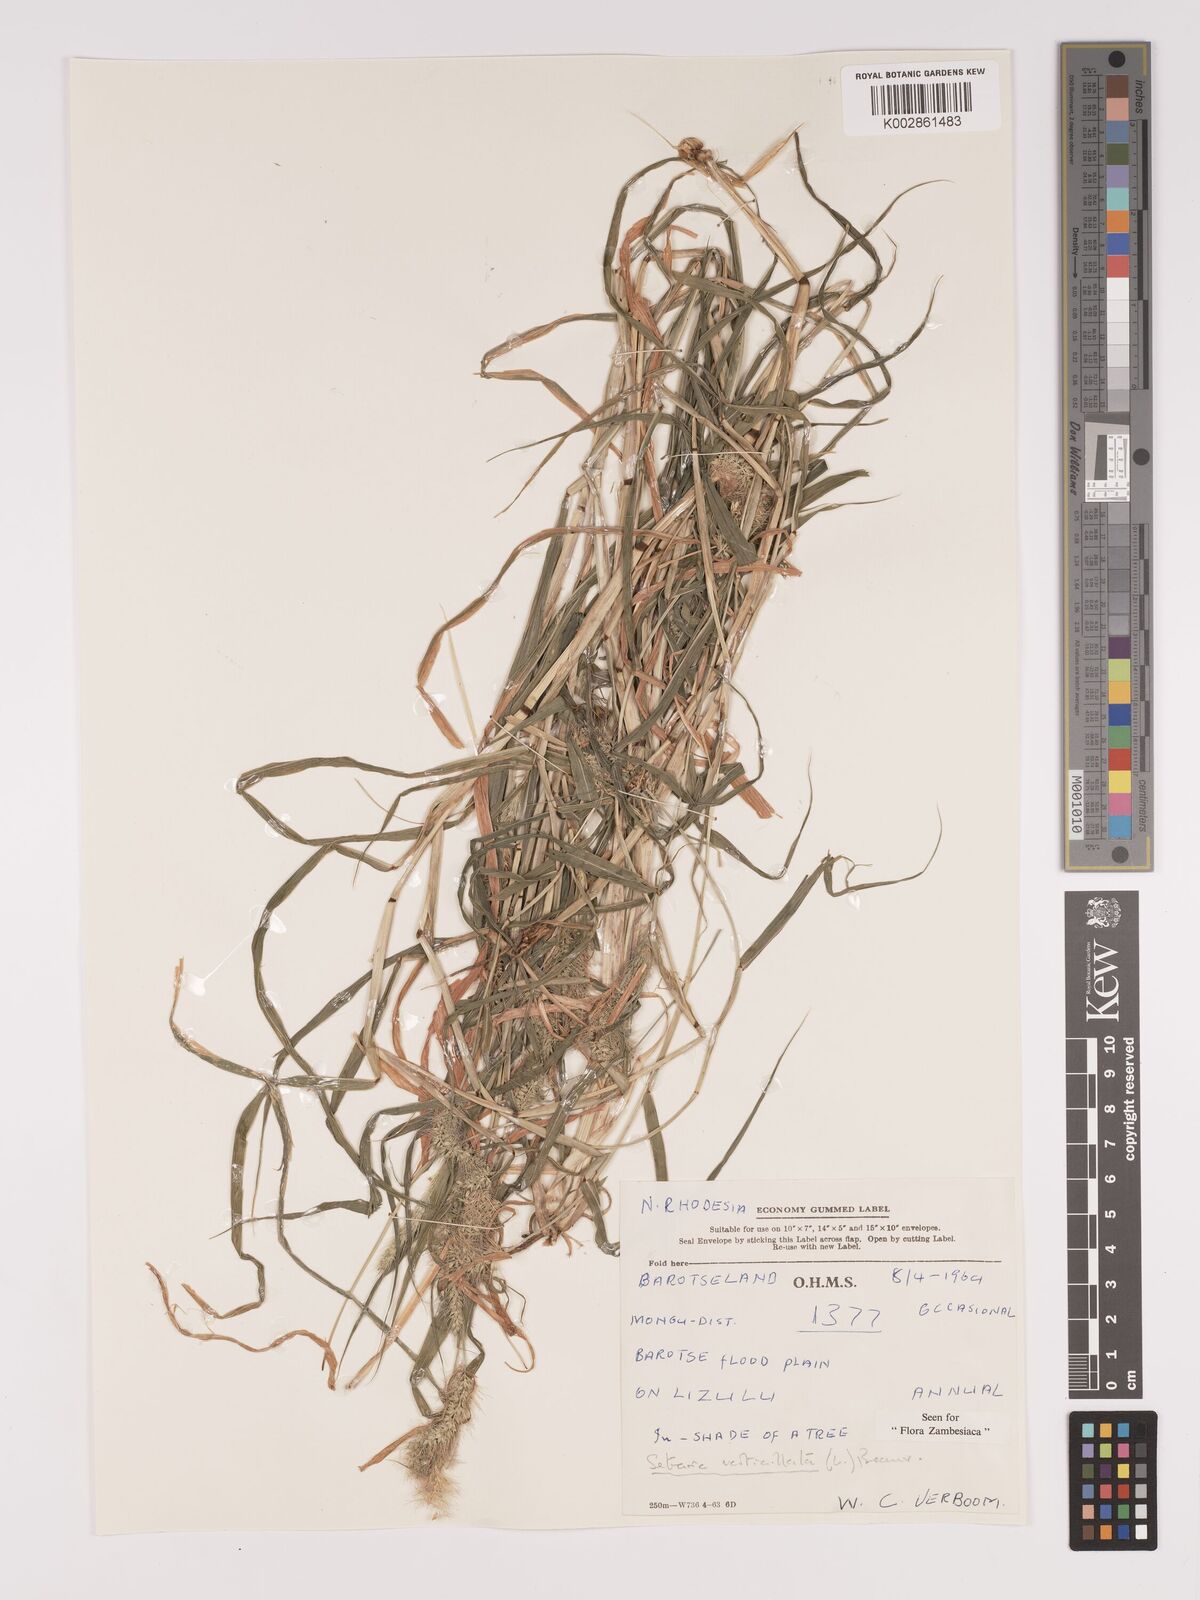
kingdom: Plantae
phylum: Tracheophyta
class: Liliopsida
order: Poales
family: Poaceae
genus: Setaria
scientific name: Setaria verticillata
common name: Hooked bristlegrass
